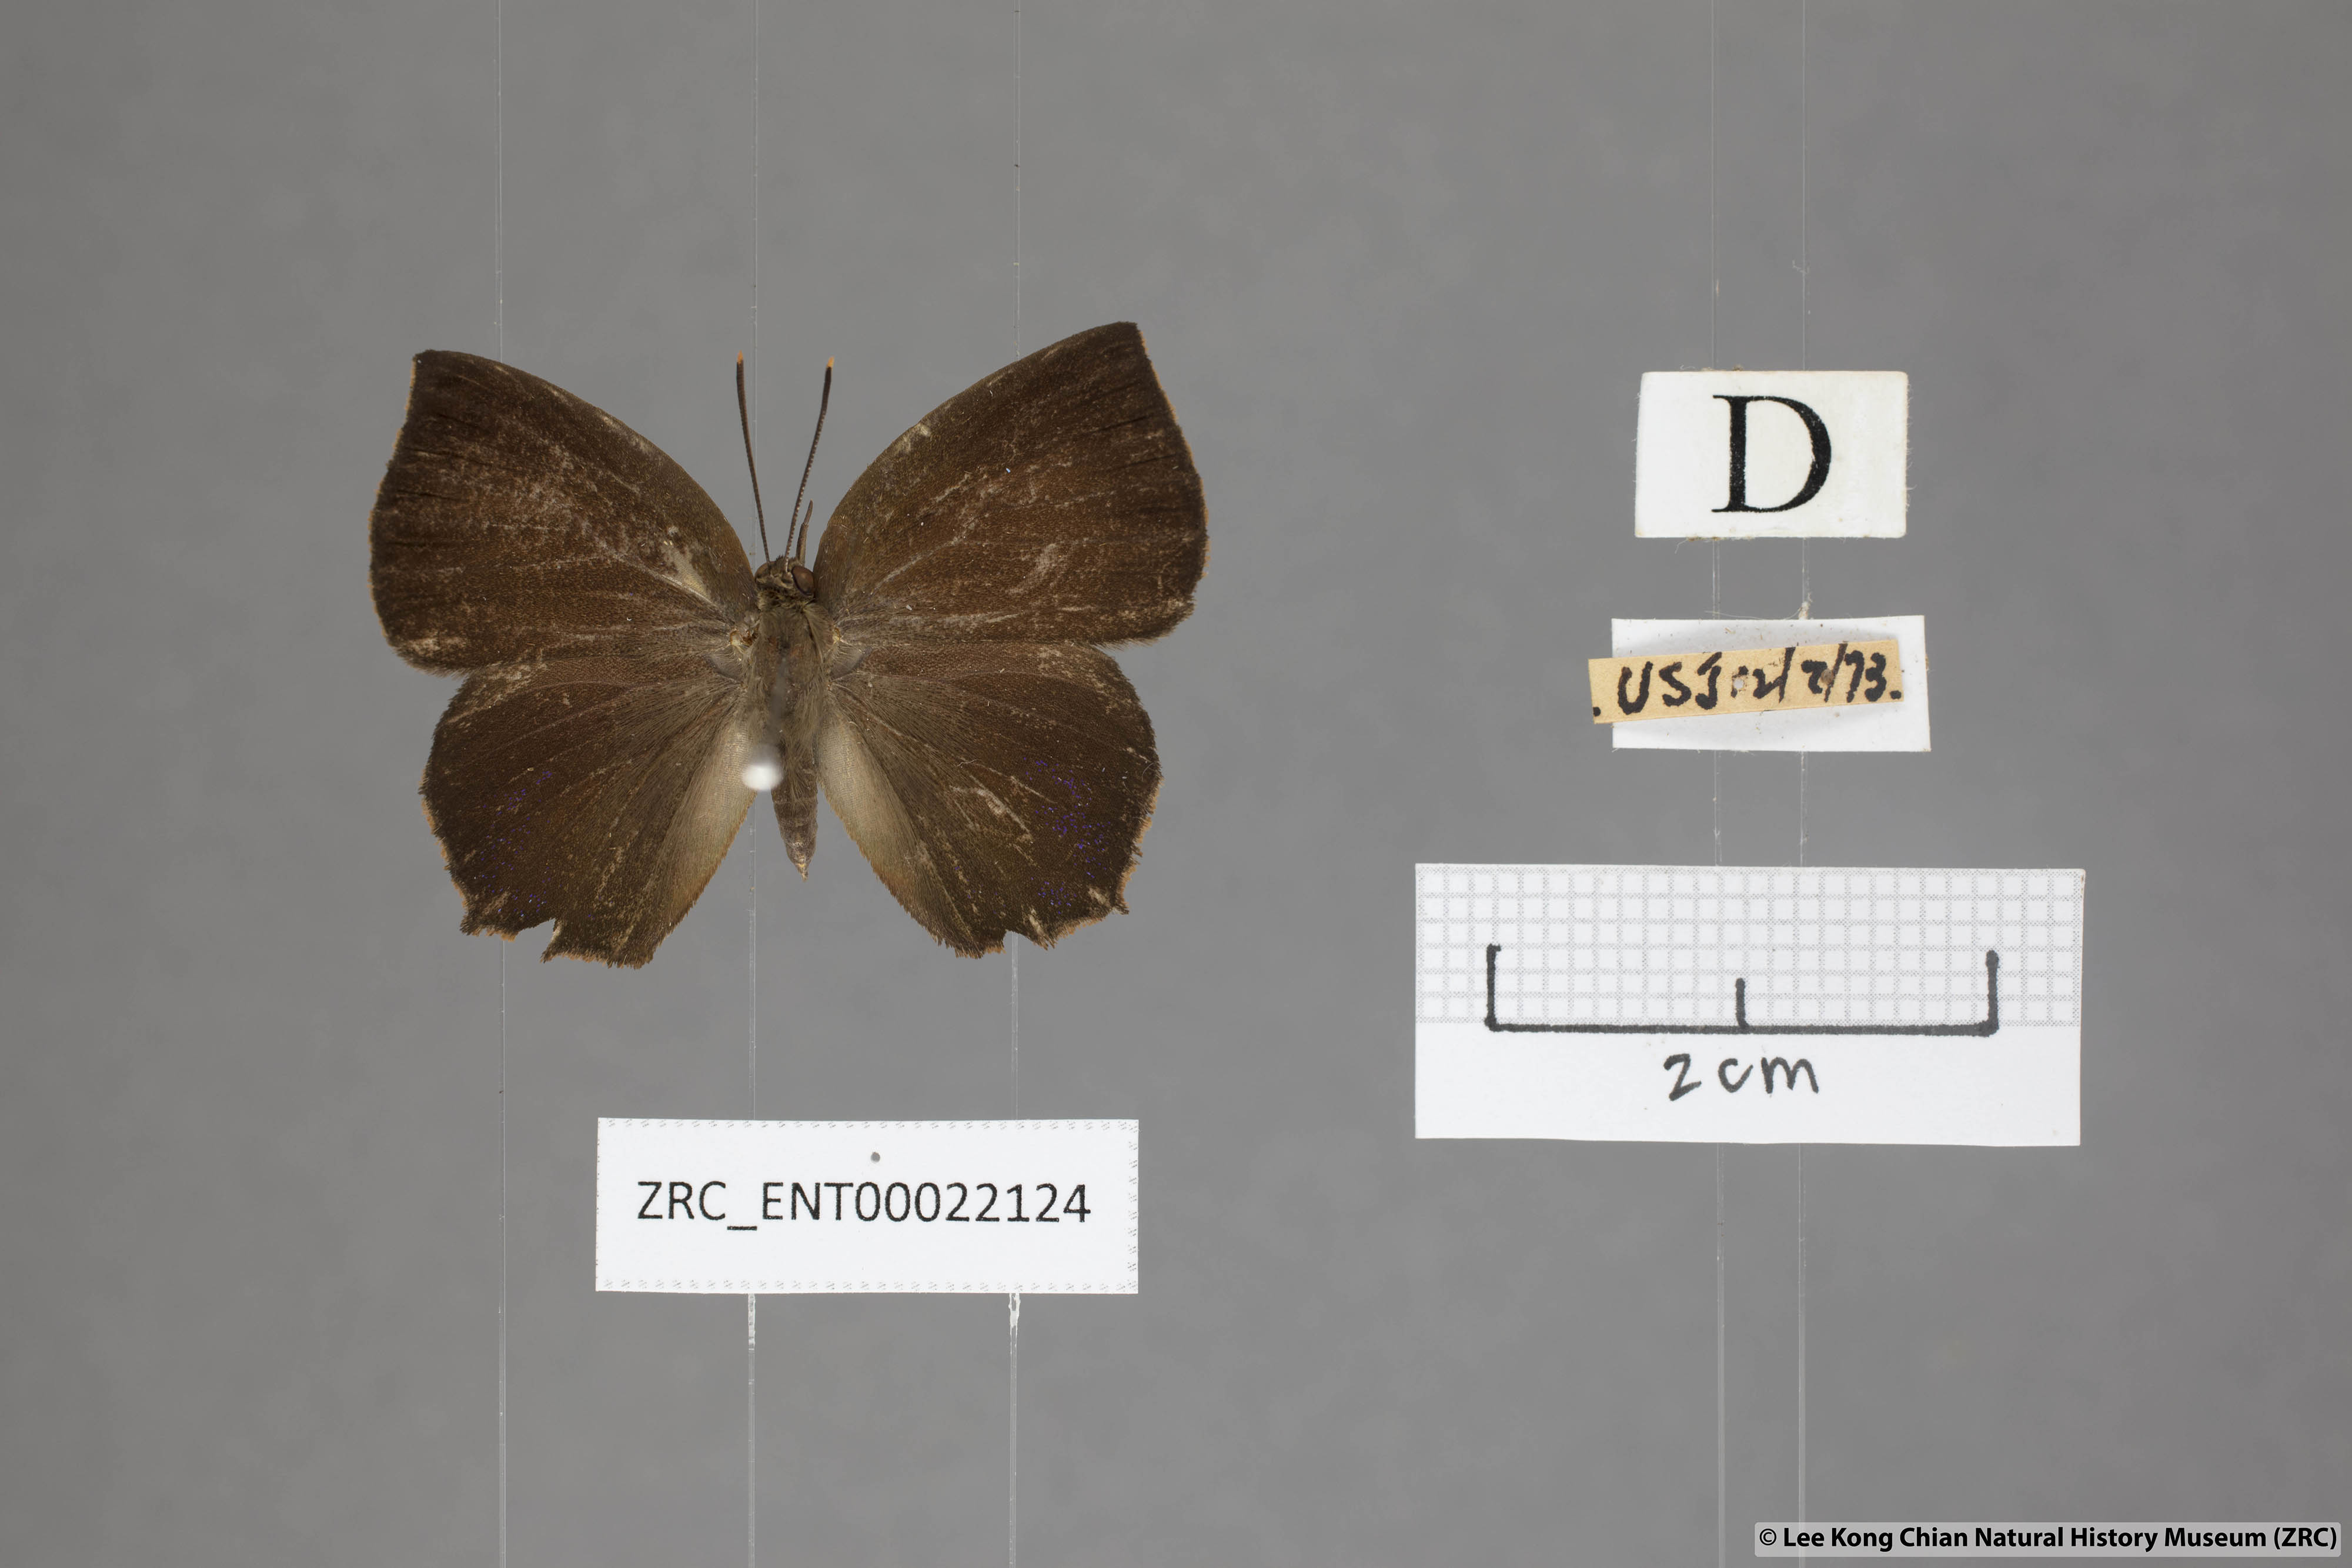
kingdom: Animalia
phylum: Arthropoda
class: Insecta
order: Lepidoptera
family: Lycaenidae
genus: Surendra
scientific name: Surendra florimel
